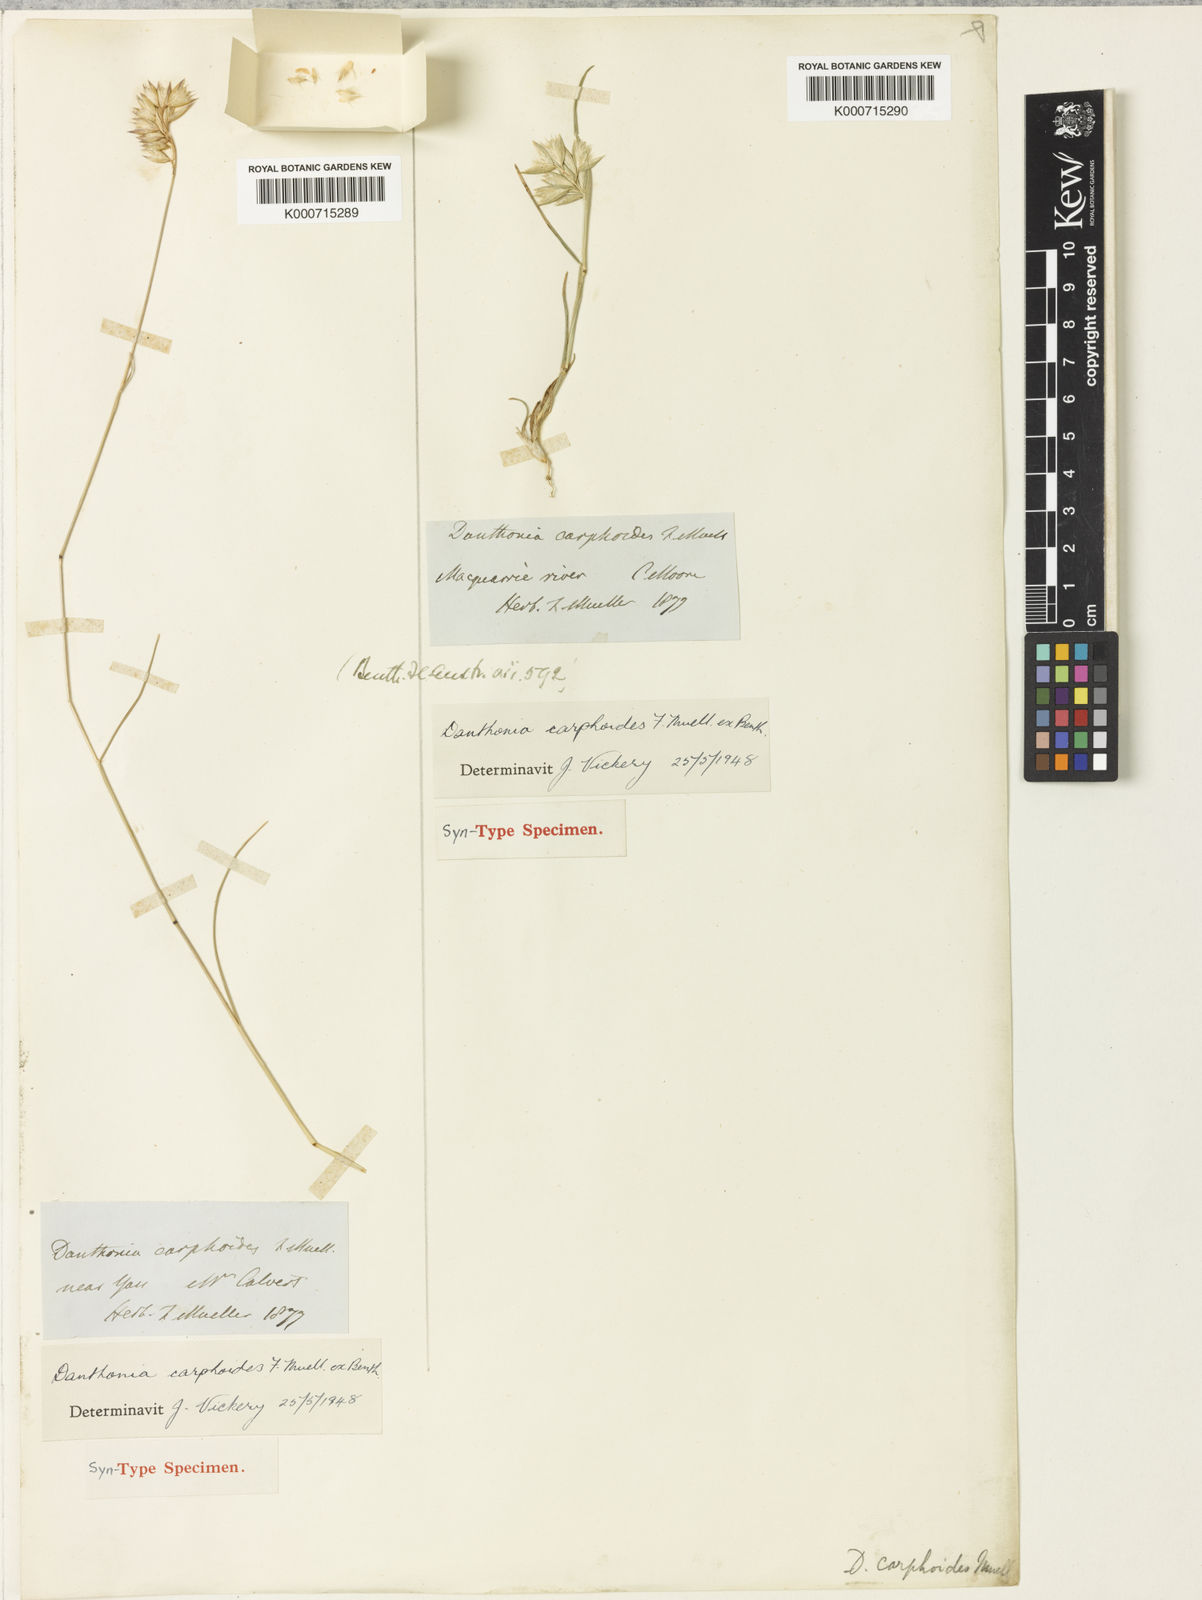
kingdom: Plantae
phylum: Tracheophyta
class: Liliopsida
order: Poales
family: Poaceae
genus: Rytidosperma
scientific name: Rytidosperma carphoides
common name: Short wallaby grass
